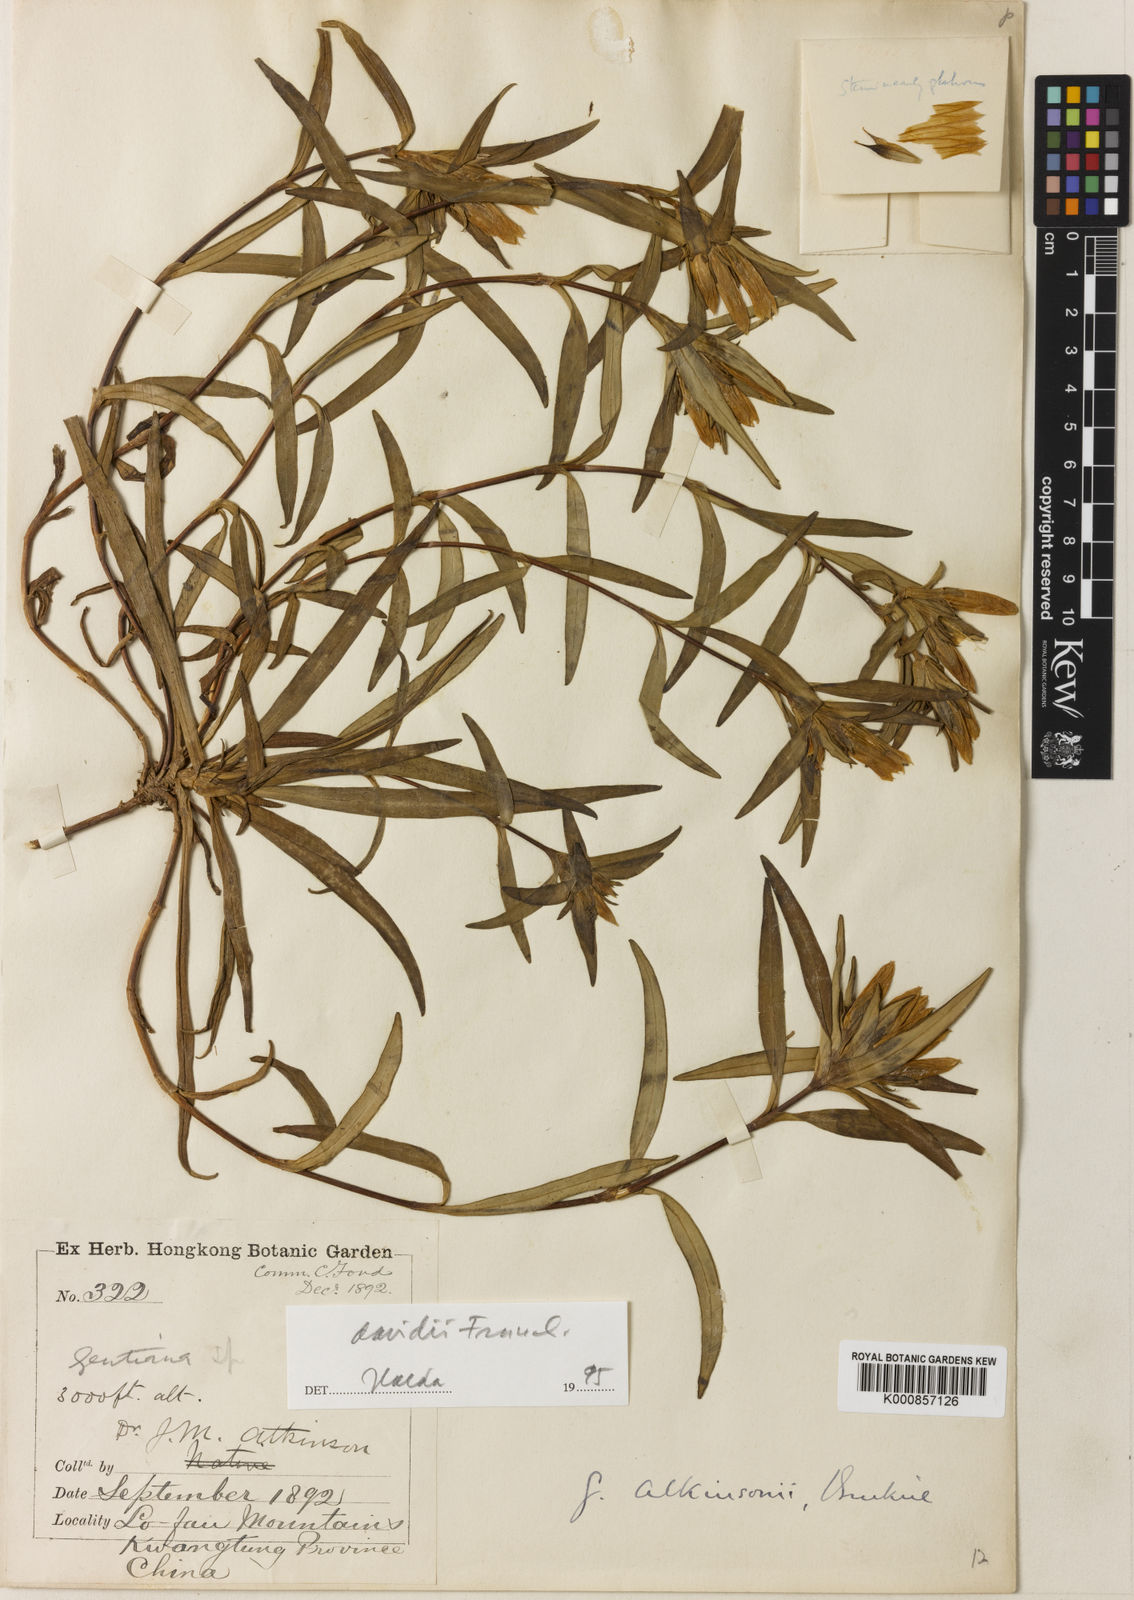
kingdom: Plantae
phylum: Tracheophyta
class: Magnoliopsida
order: Gentianales
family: Gentianaceae
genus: Gentiana
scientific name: Gentiana davidii
